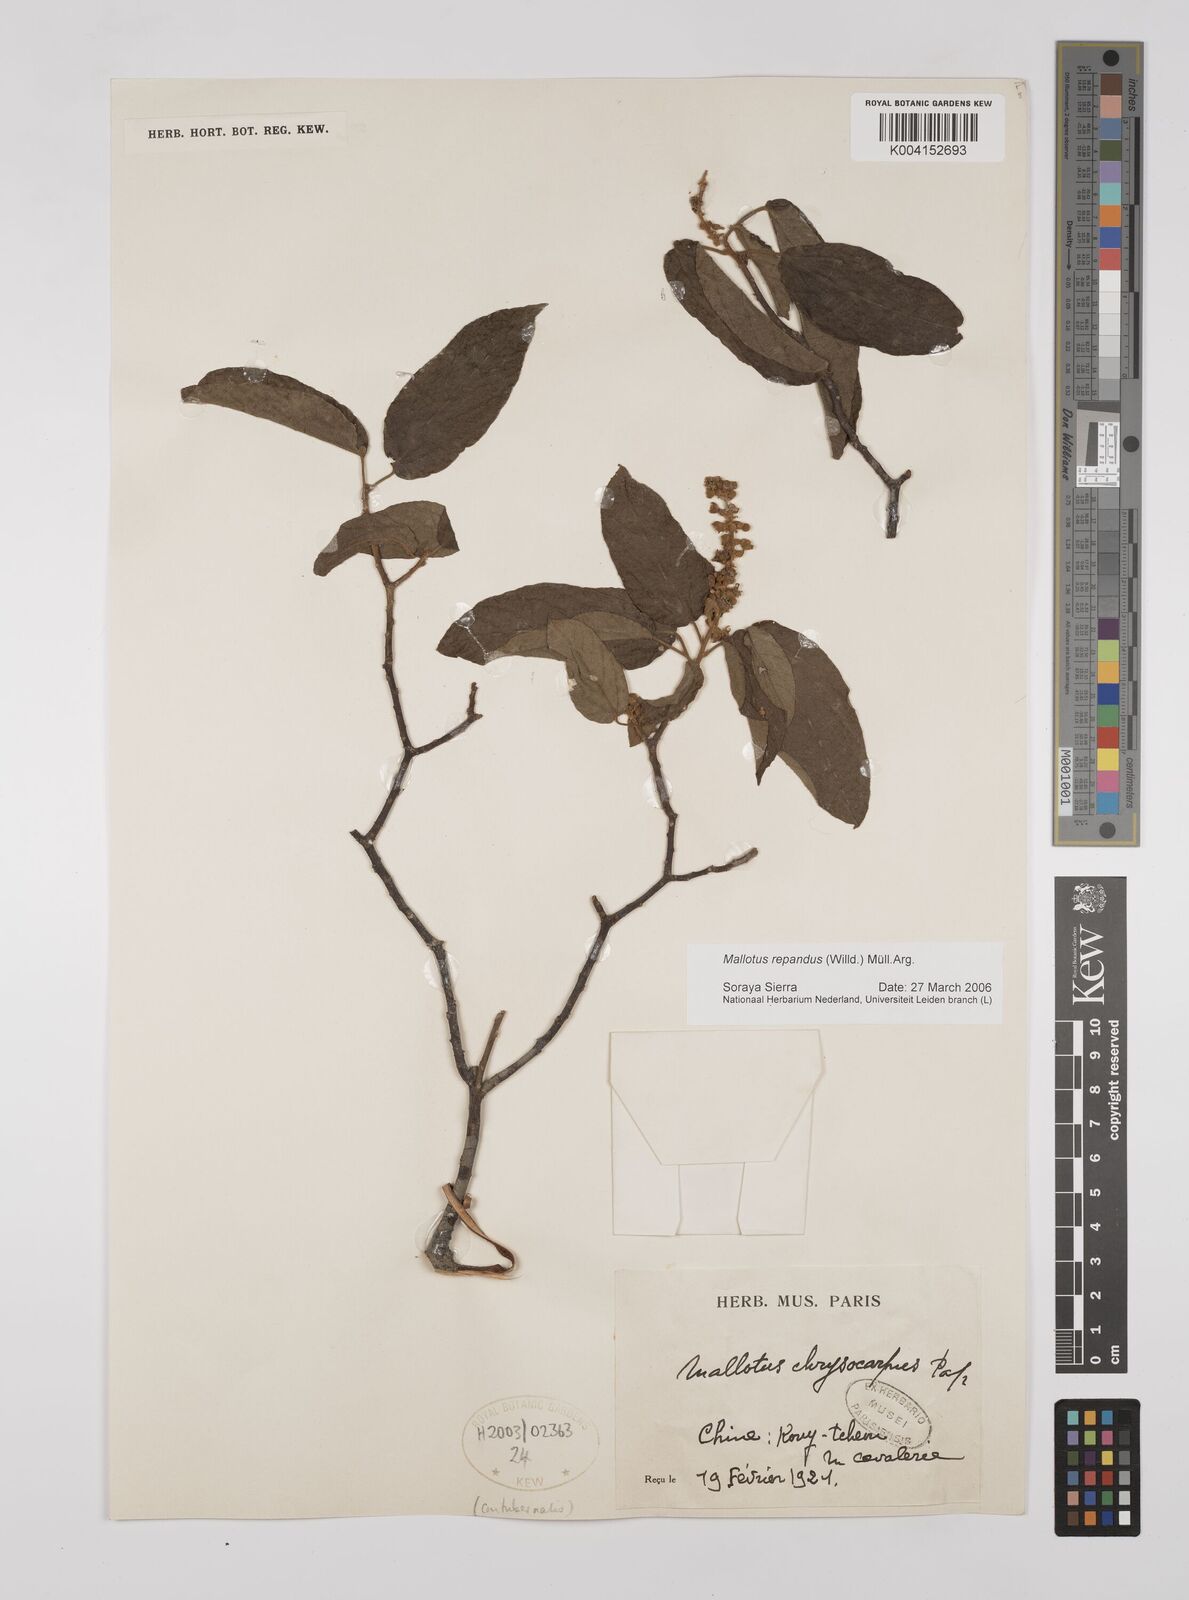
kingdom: Plantae
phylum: Tracheophyta
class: Magnoliopsida
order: Malpighiales
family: Euphorbiaceae
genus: Mallotus
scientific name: Mallotus repandus
